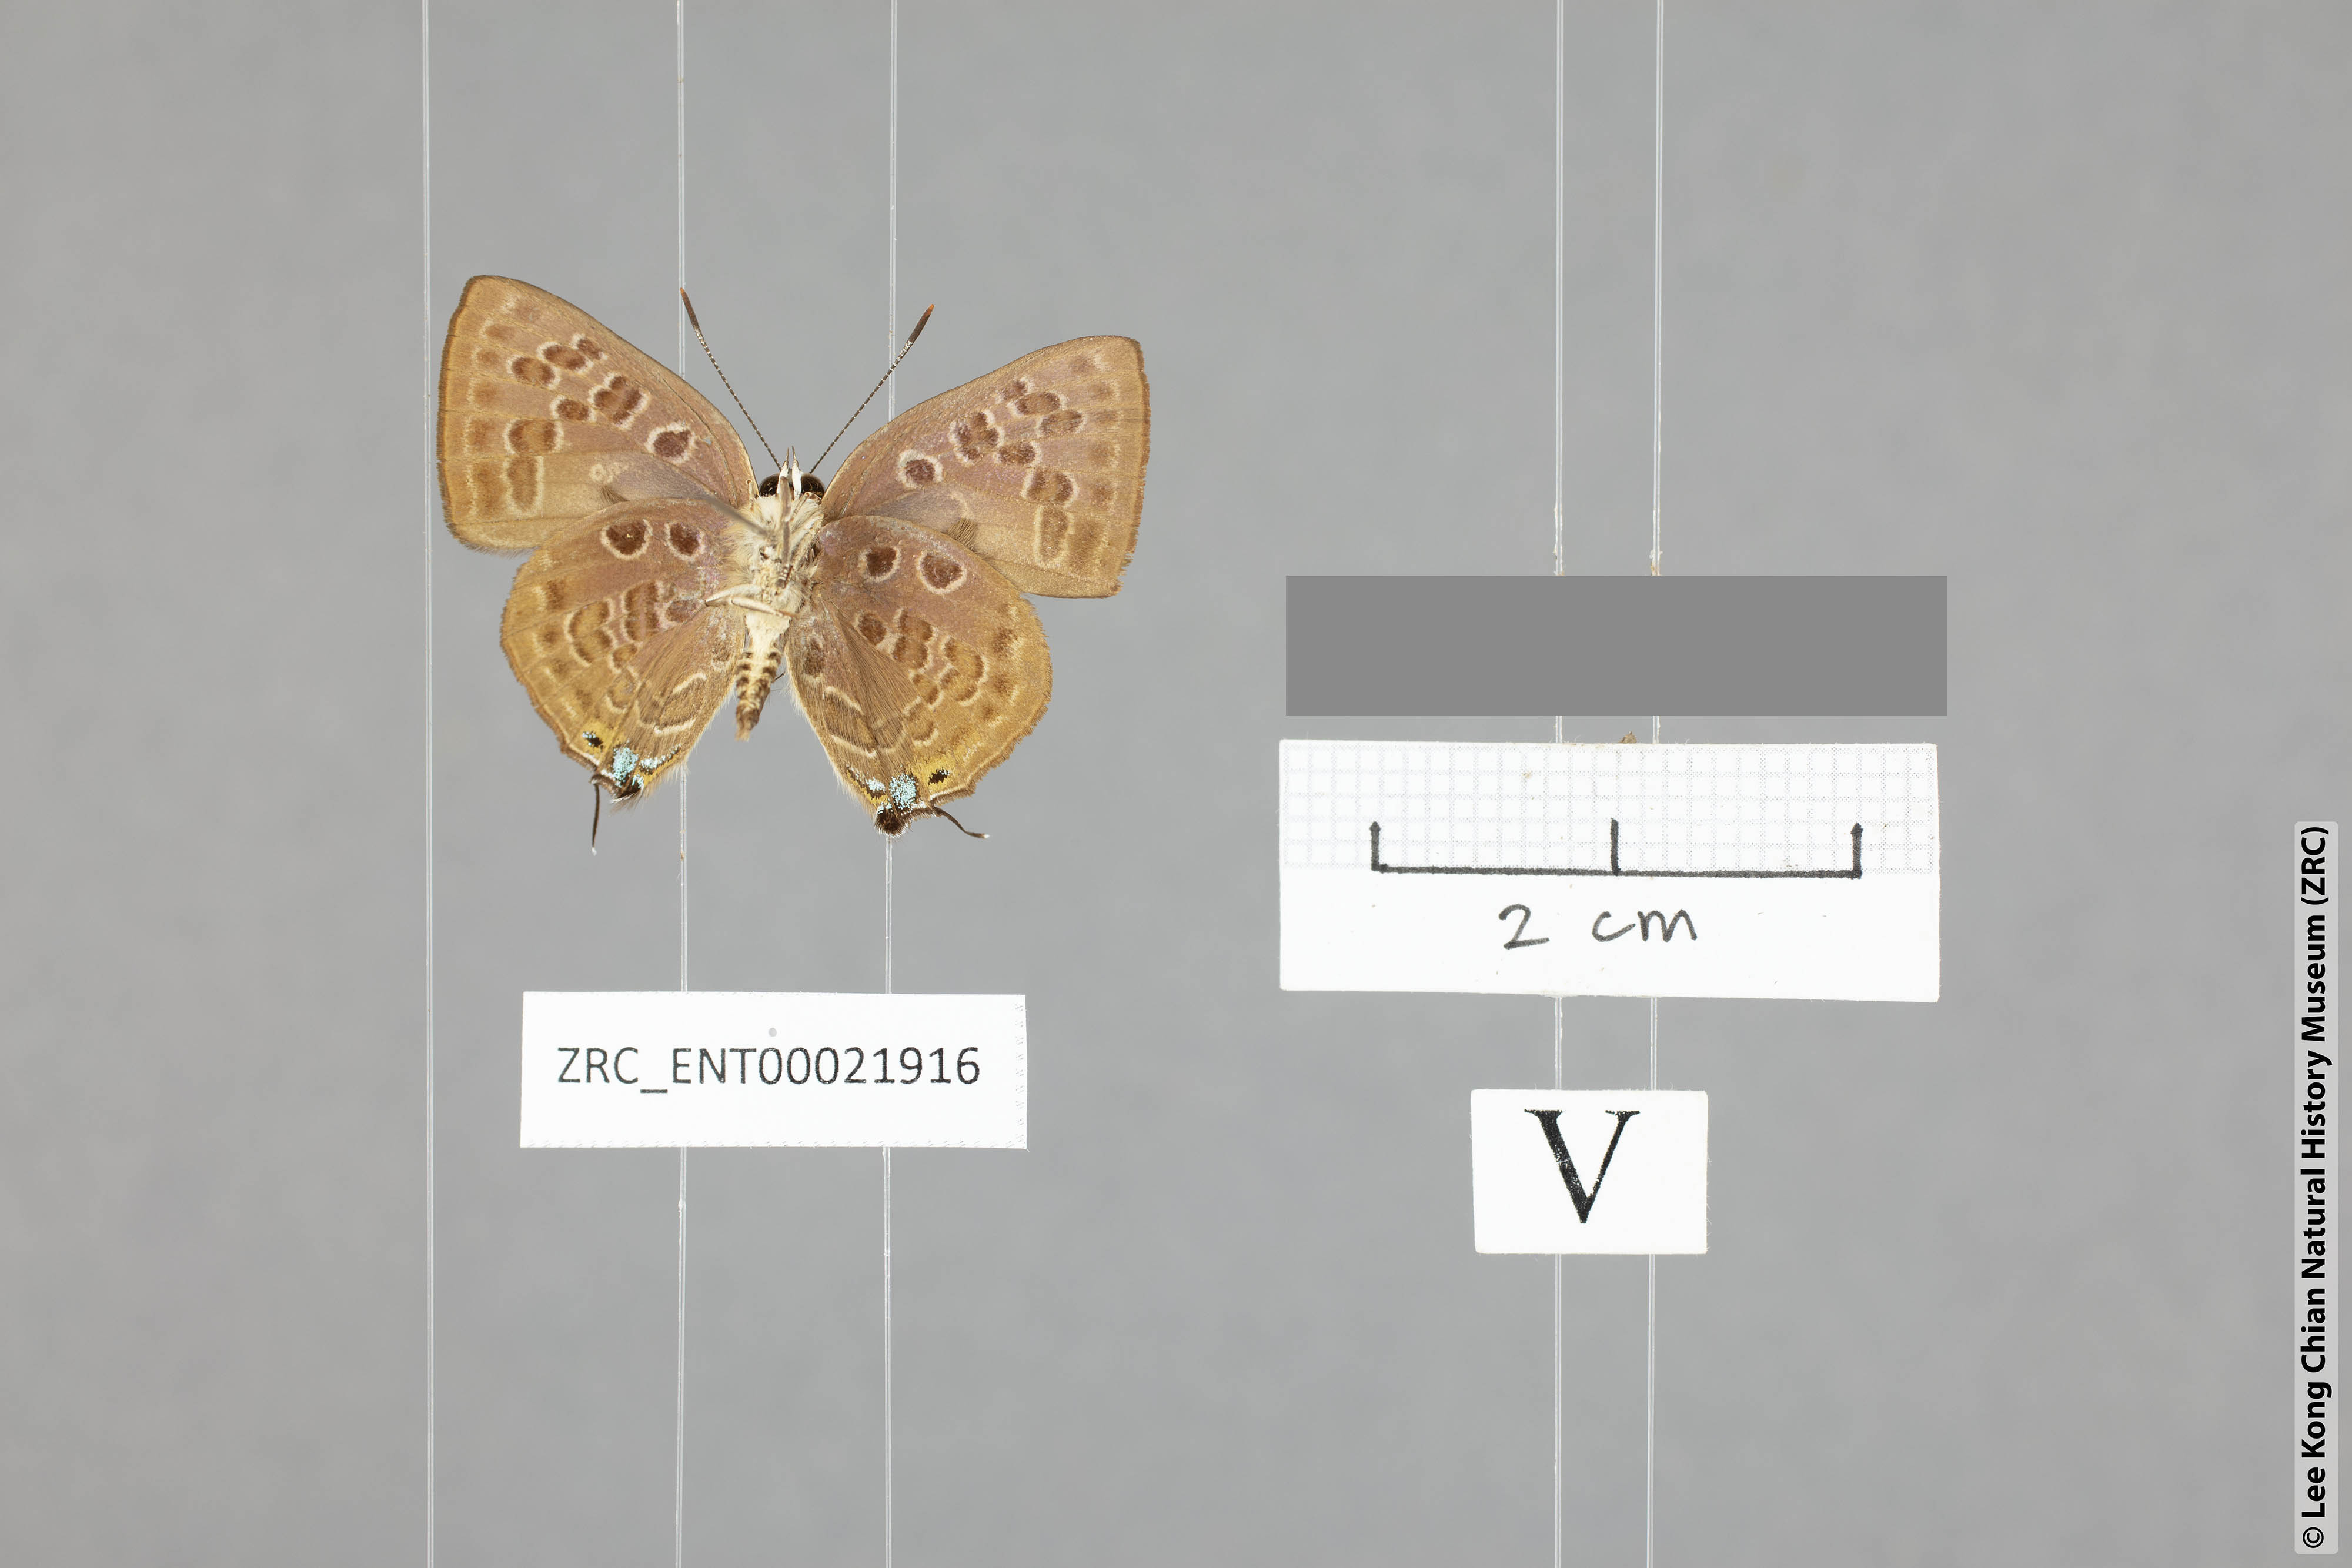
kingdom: Animalia
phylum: Arthropoda
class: Insecta
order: Lepidoptera
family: Lycaenidae
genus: Deudorix
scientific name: Deudorix
